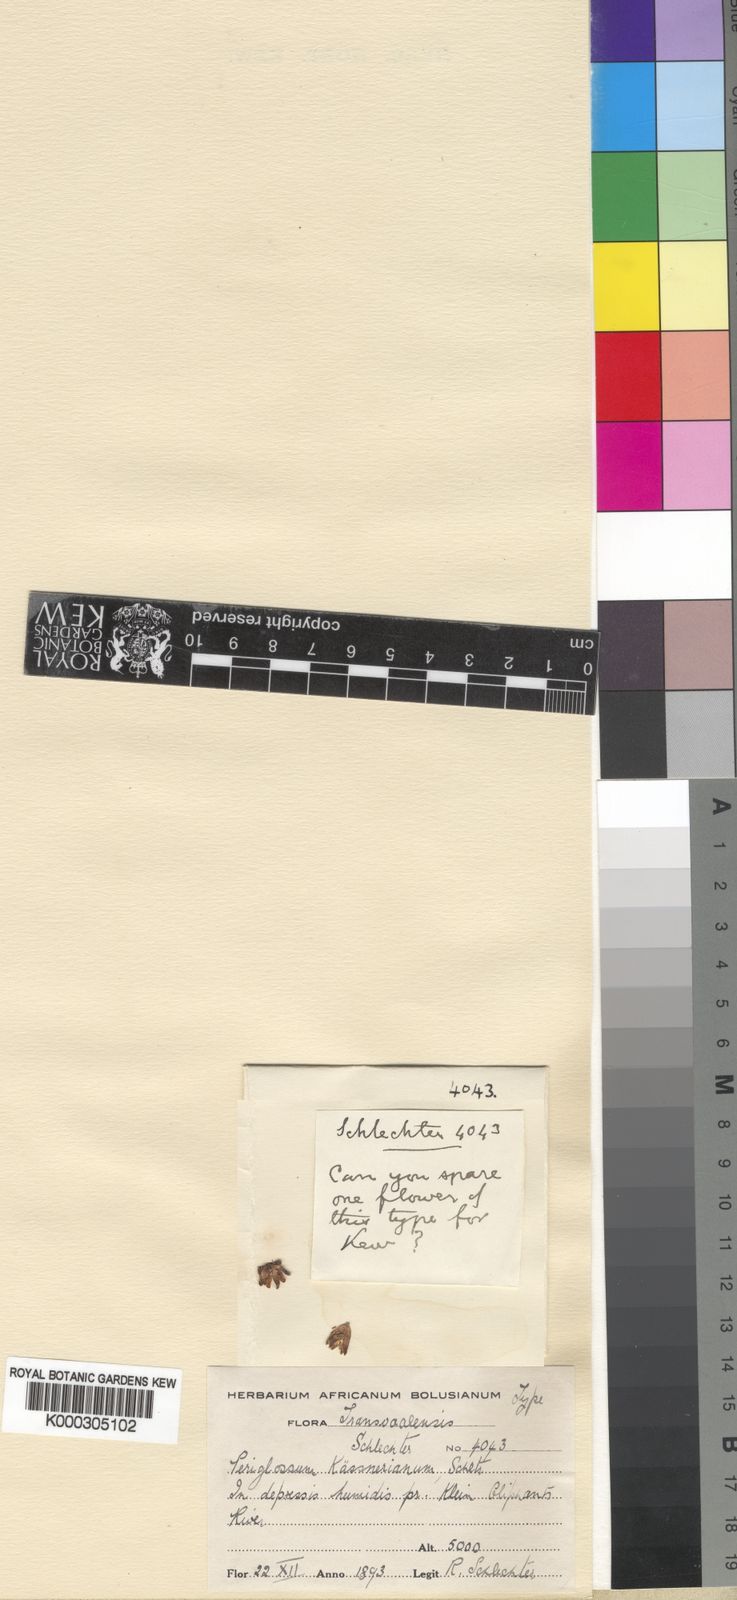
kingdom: Plantae
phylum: Tracheophyta
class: Magnoliopsida
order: Gentianales
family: Apocynaceae
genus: Periglossum
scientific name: Periglossum
